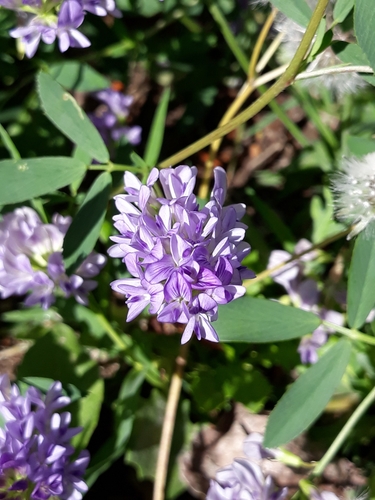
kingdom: Plantae
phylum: Tracheophyta
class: Magnoliopsida
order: Fabales
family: Fabaceae
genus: Medicago
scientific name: Medicago sativa
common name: Alfalfa
